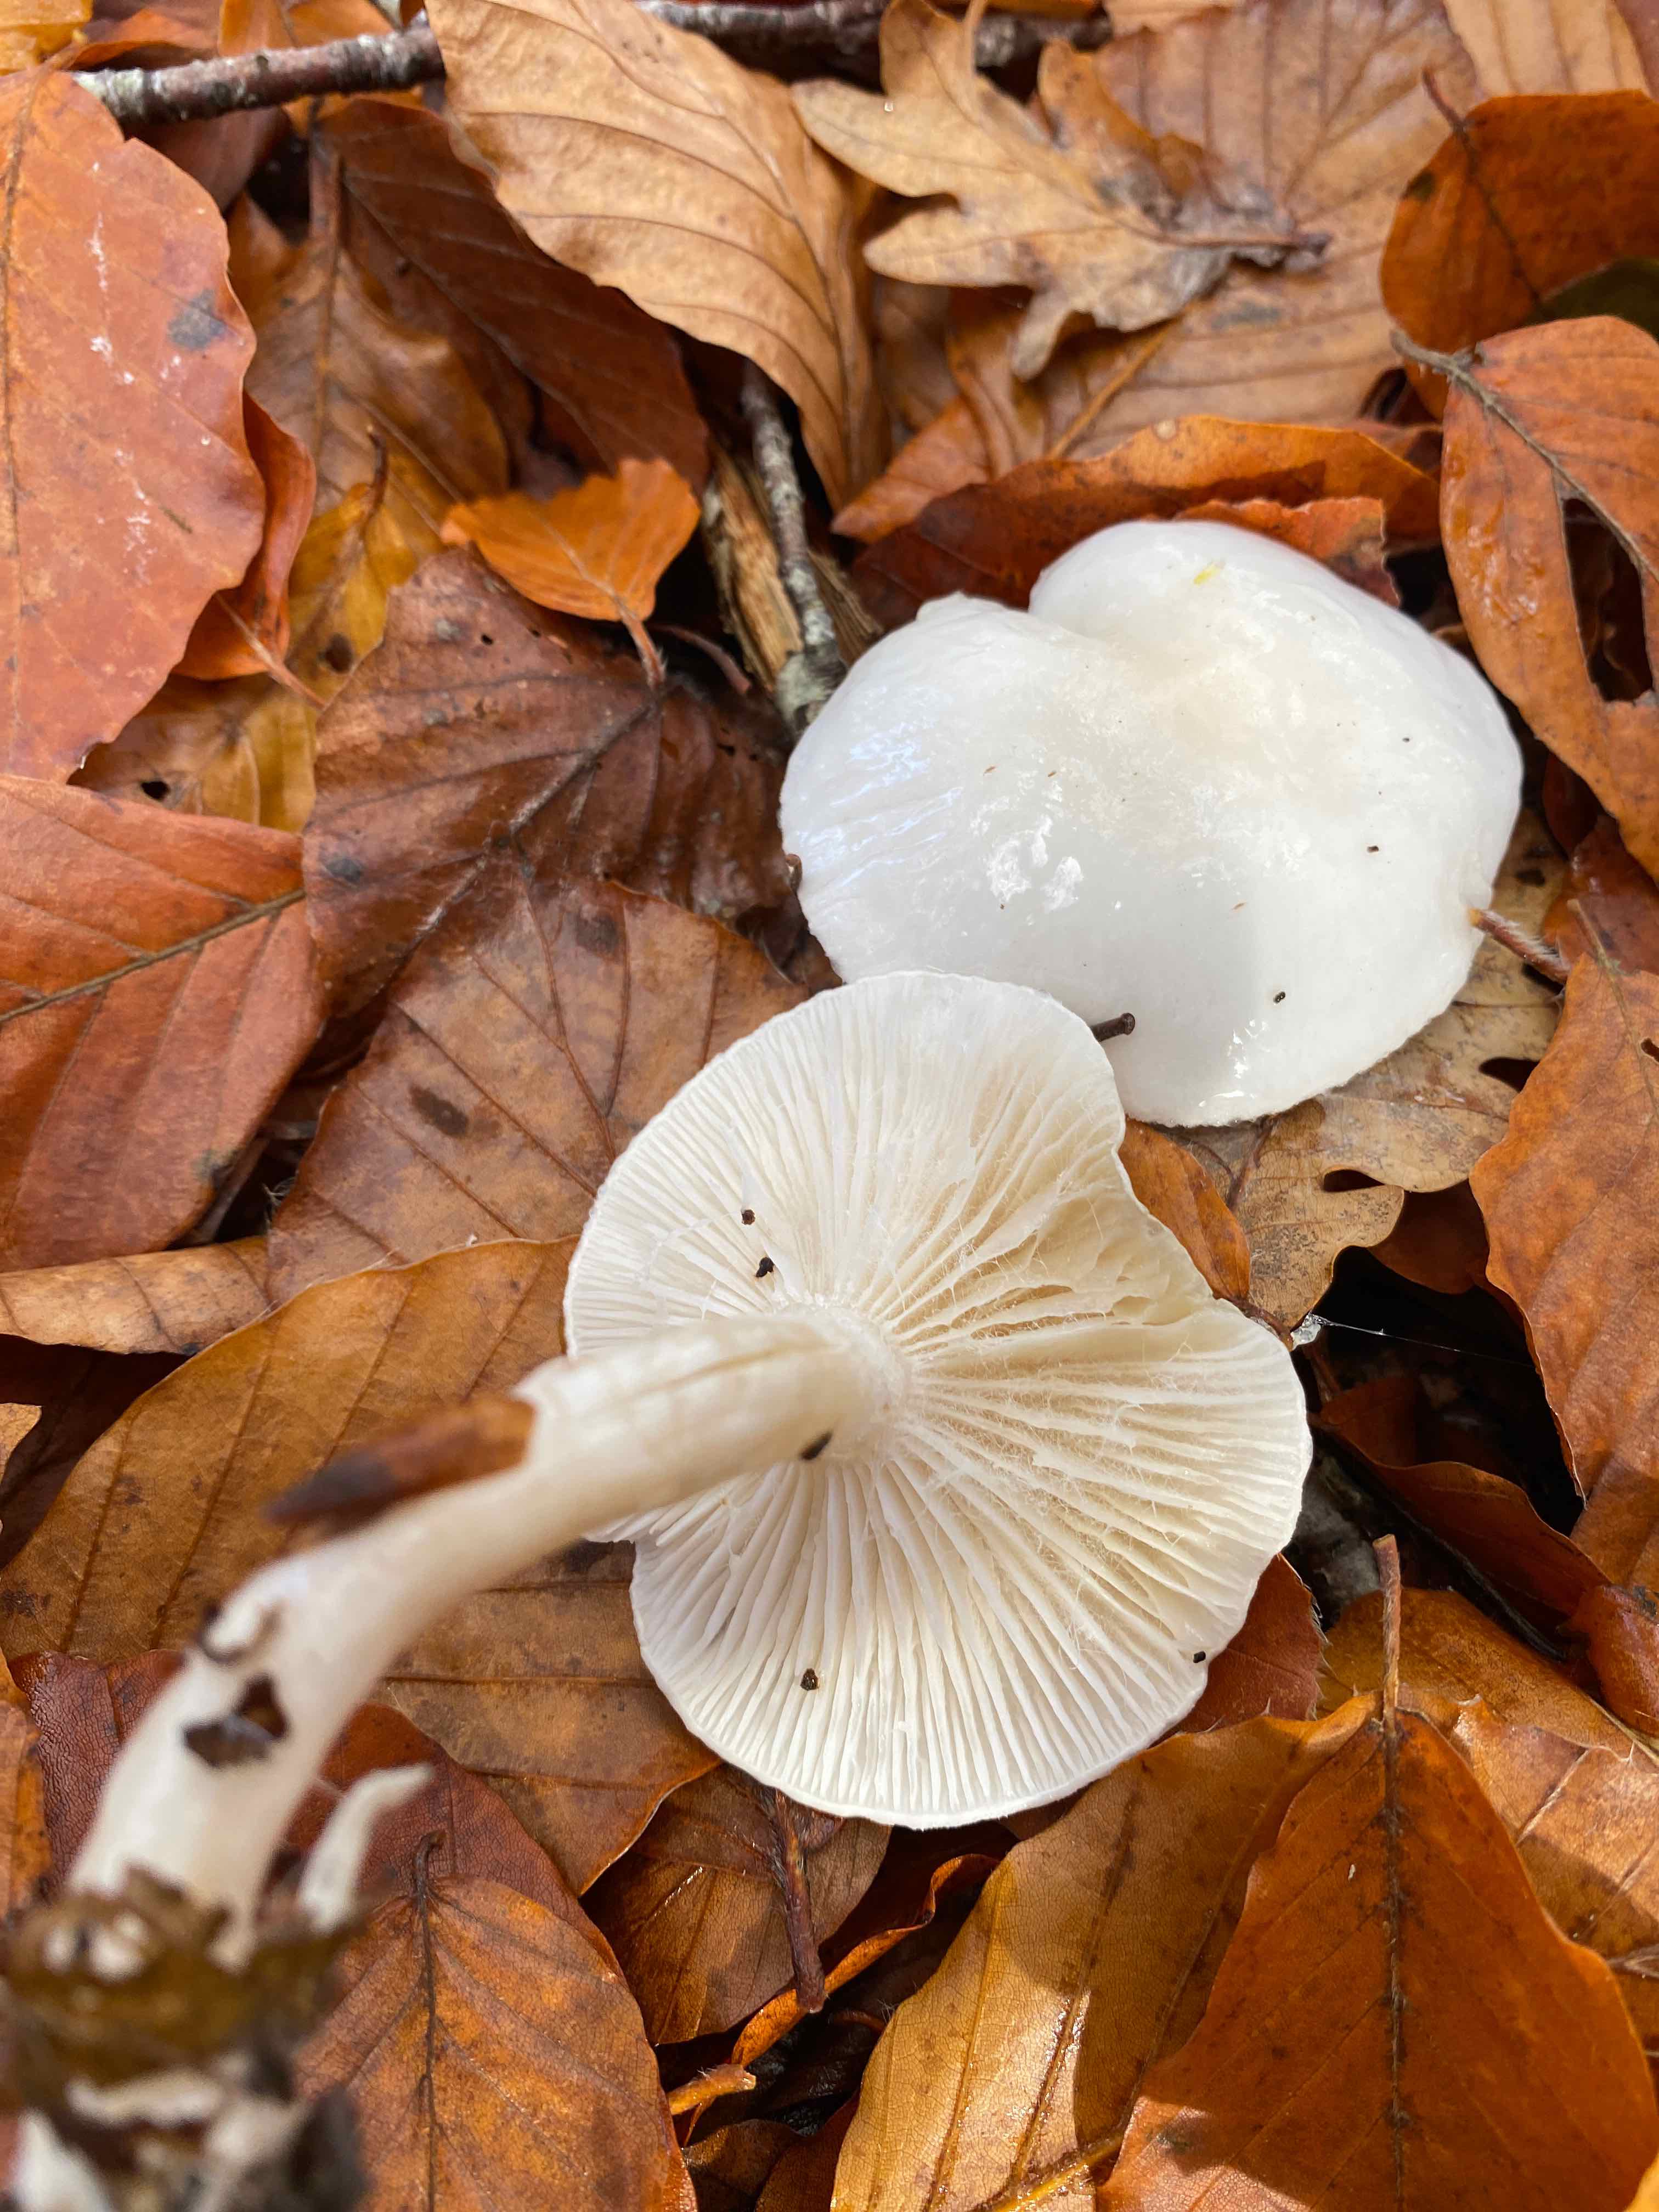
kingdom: Fungi
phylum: Basidiomycota
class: Agaricomycetes
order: Agaricales
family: Hygrophoraceae
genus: Hygrophorus
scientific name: Hygrophorus eburneus
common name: elfenbens-sneglehat
